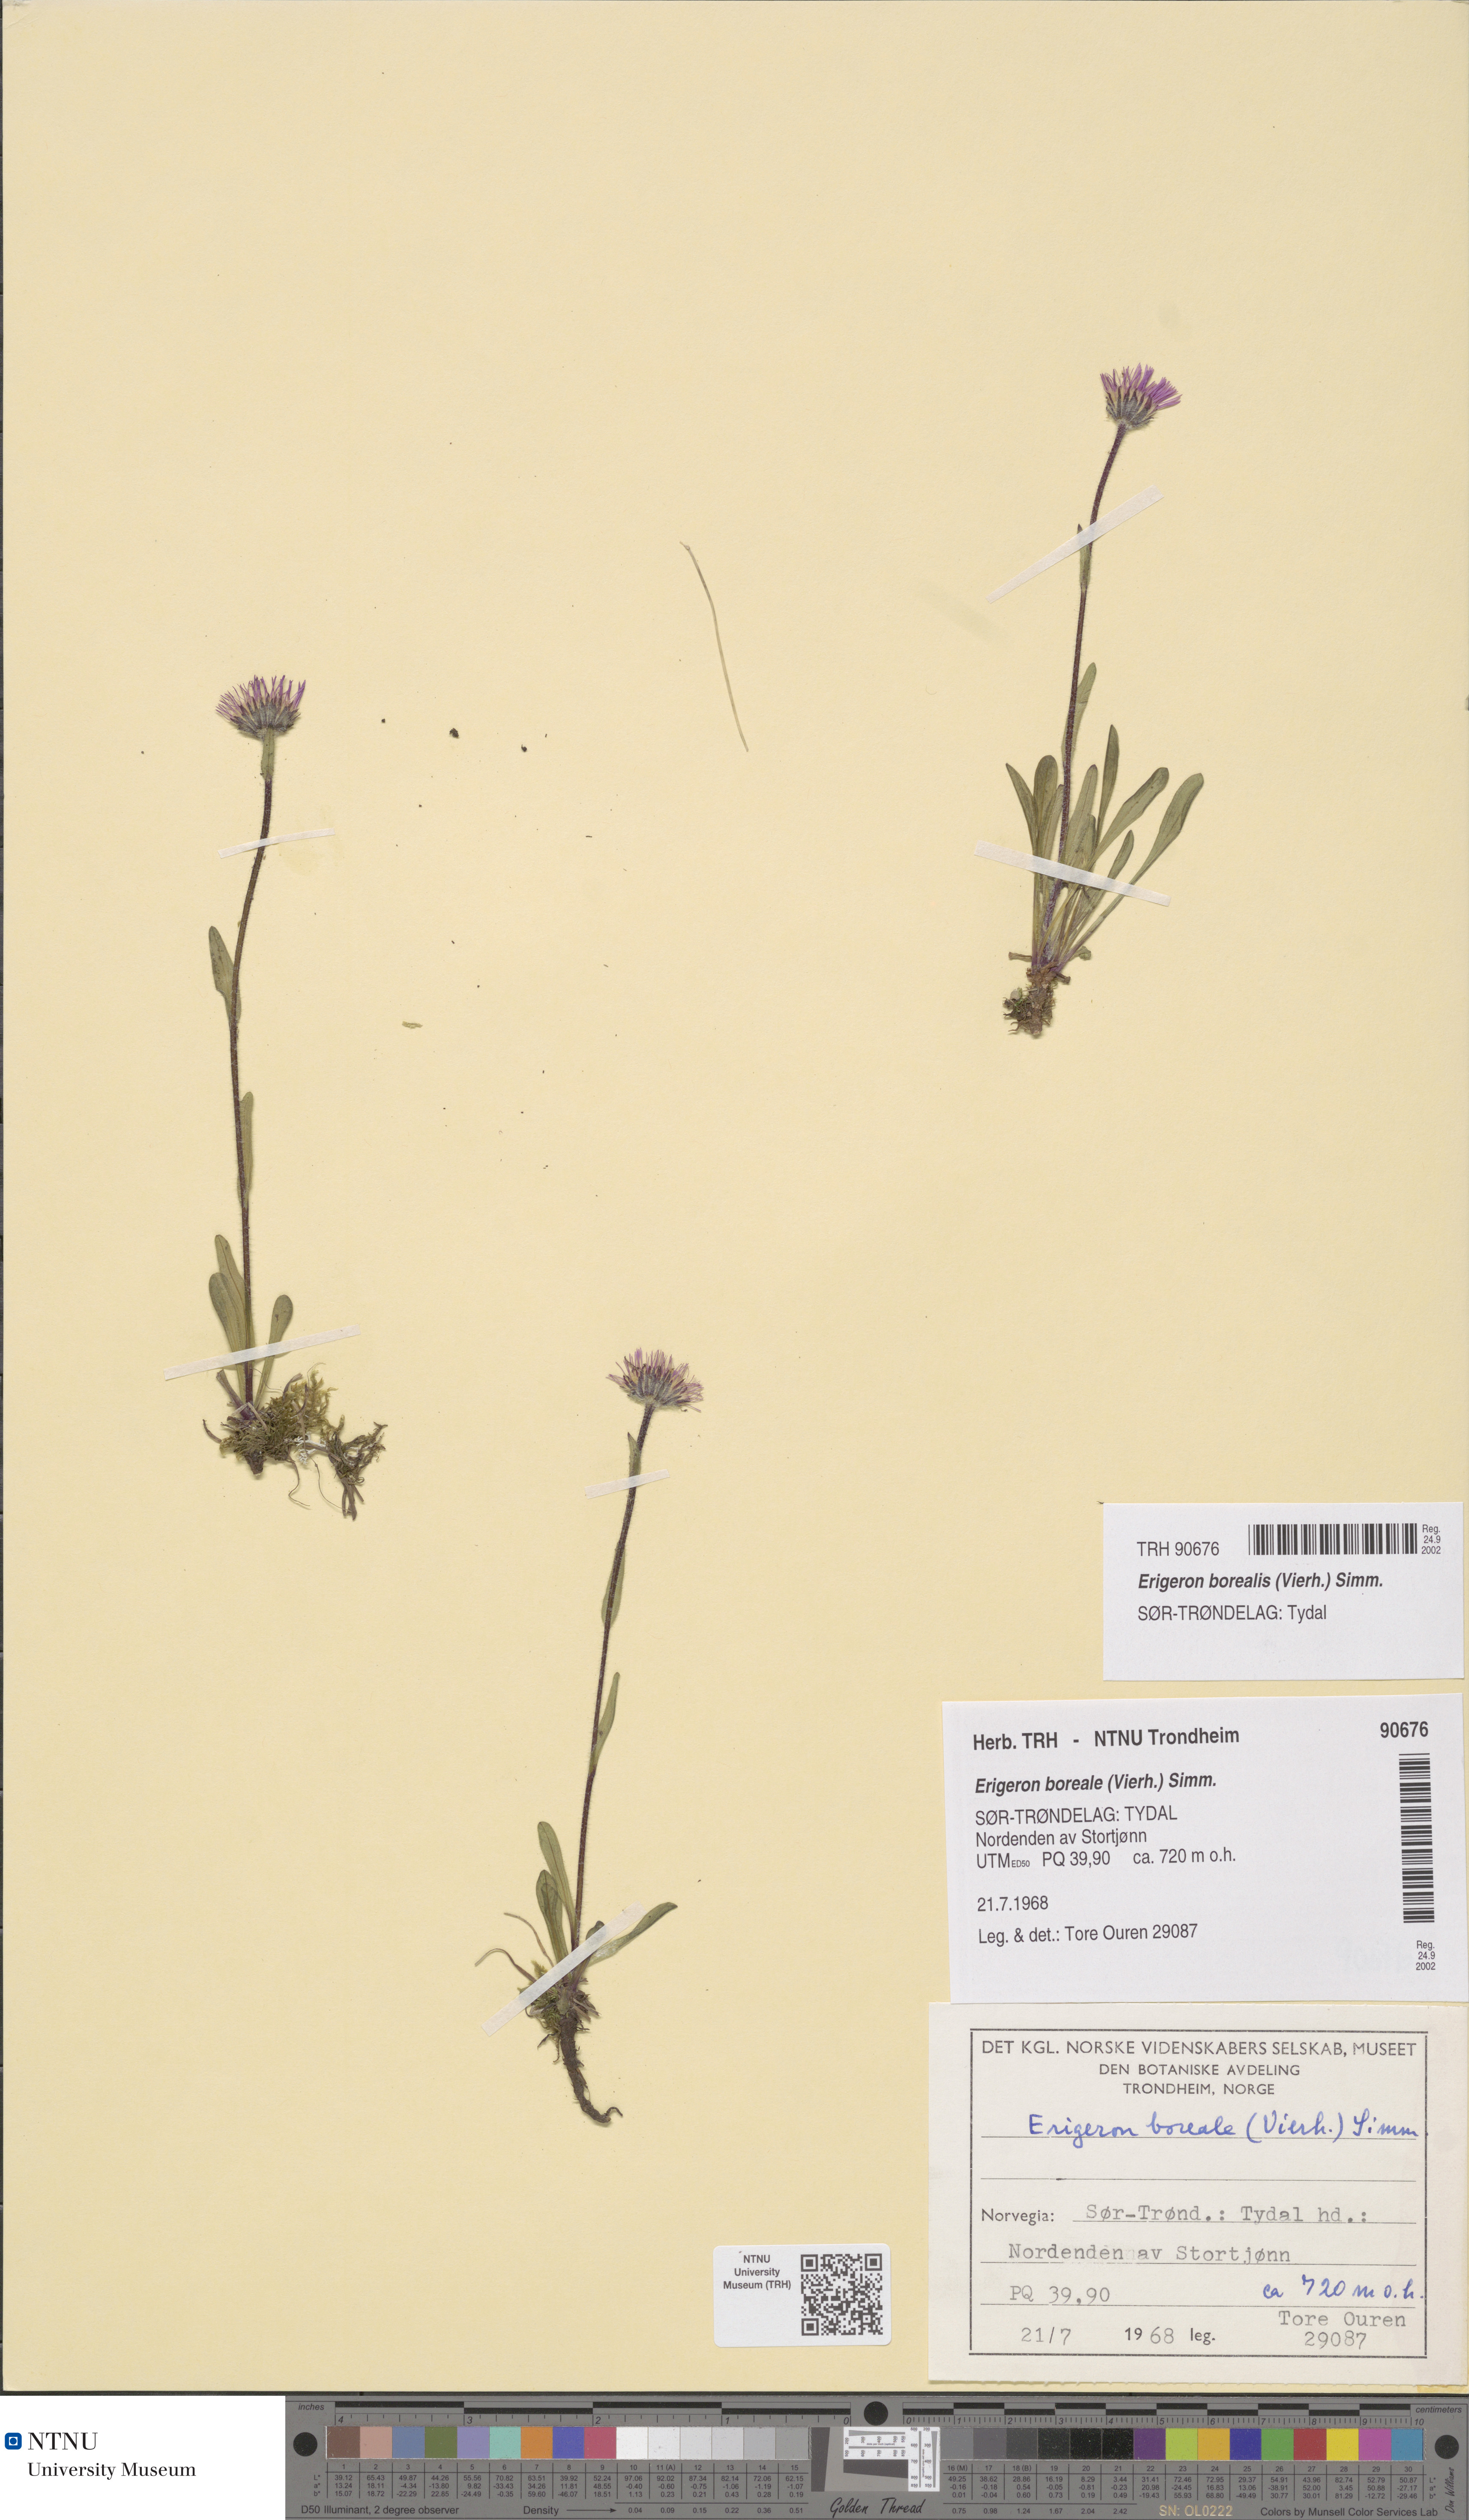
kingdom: Plantae
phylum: Tracheophyta
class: Magnoliopsida
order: Asterales
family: Asteraceae
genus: Erigeron
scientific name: Erigeron borealis
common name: Alpine fleabane
